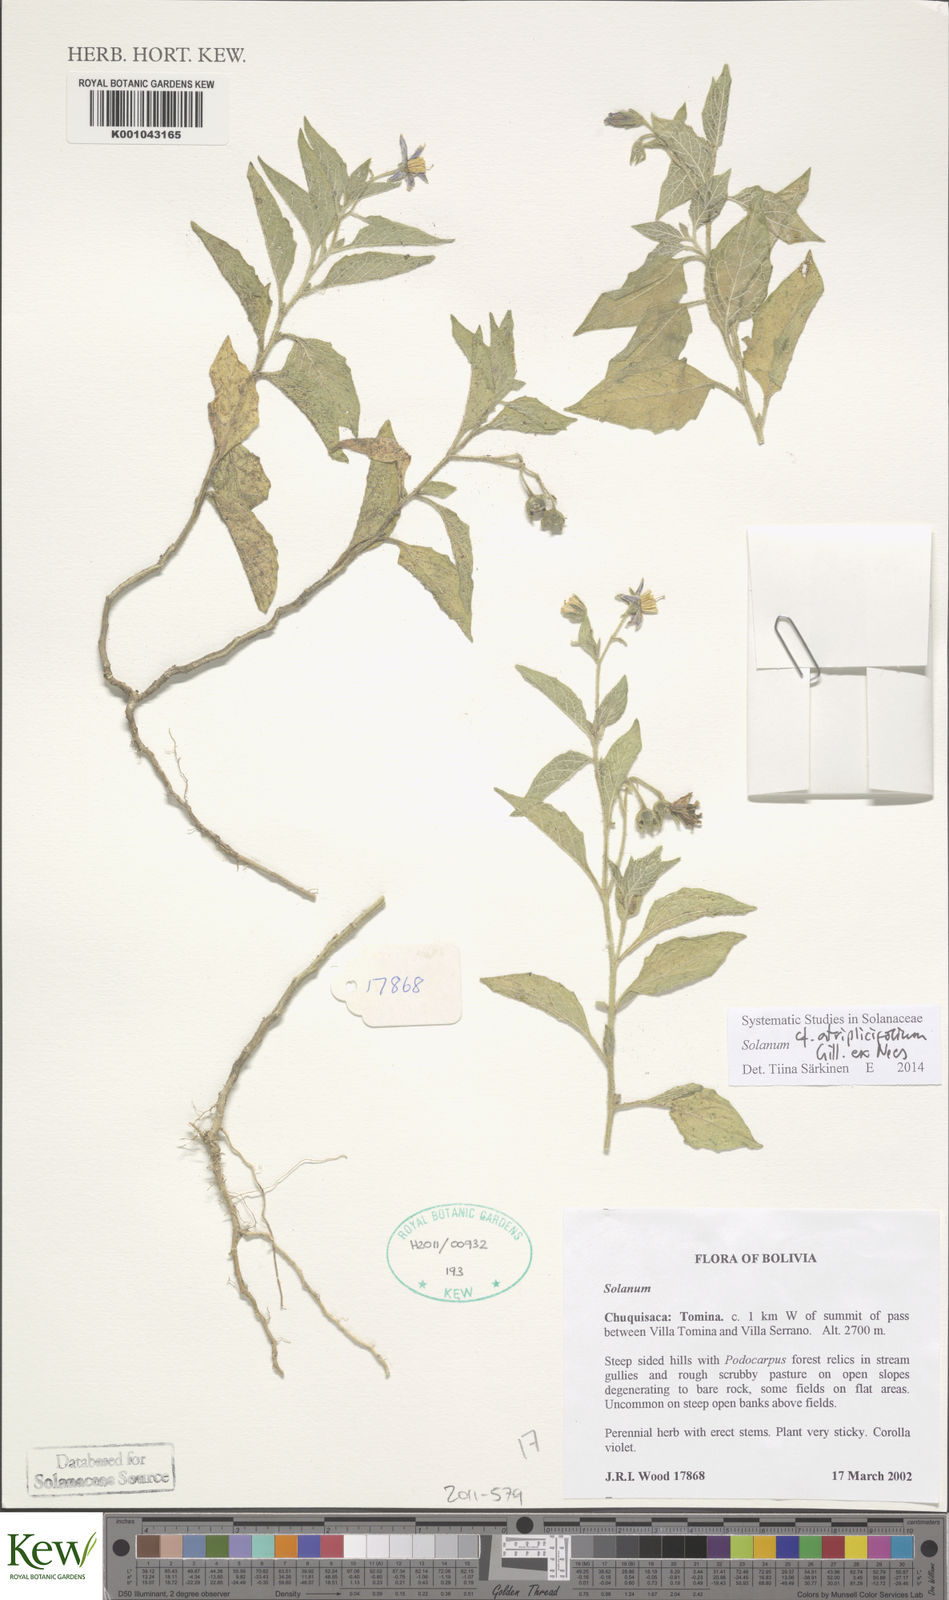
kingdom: Plantae
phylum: Tracheophyta
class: Magnoliopsida
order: Solanales
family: Solanaceae
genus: Solanum
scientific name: Solanum tweedianum
